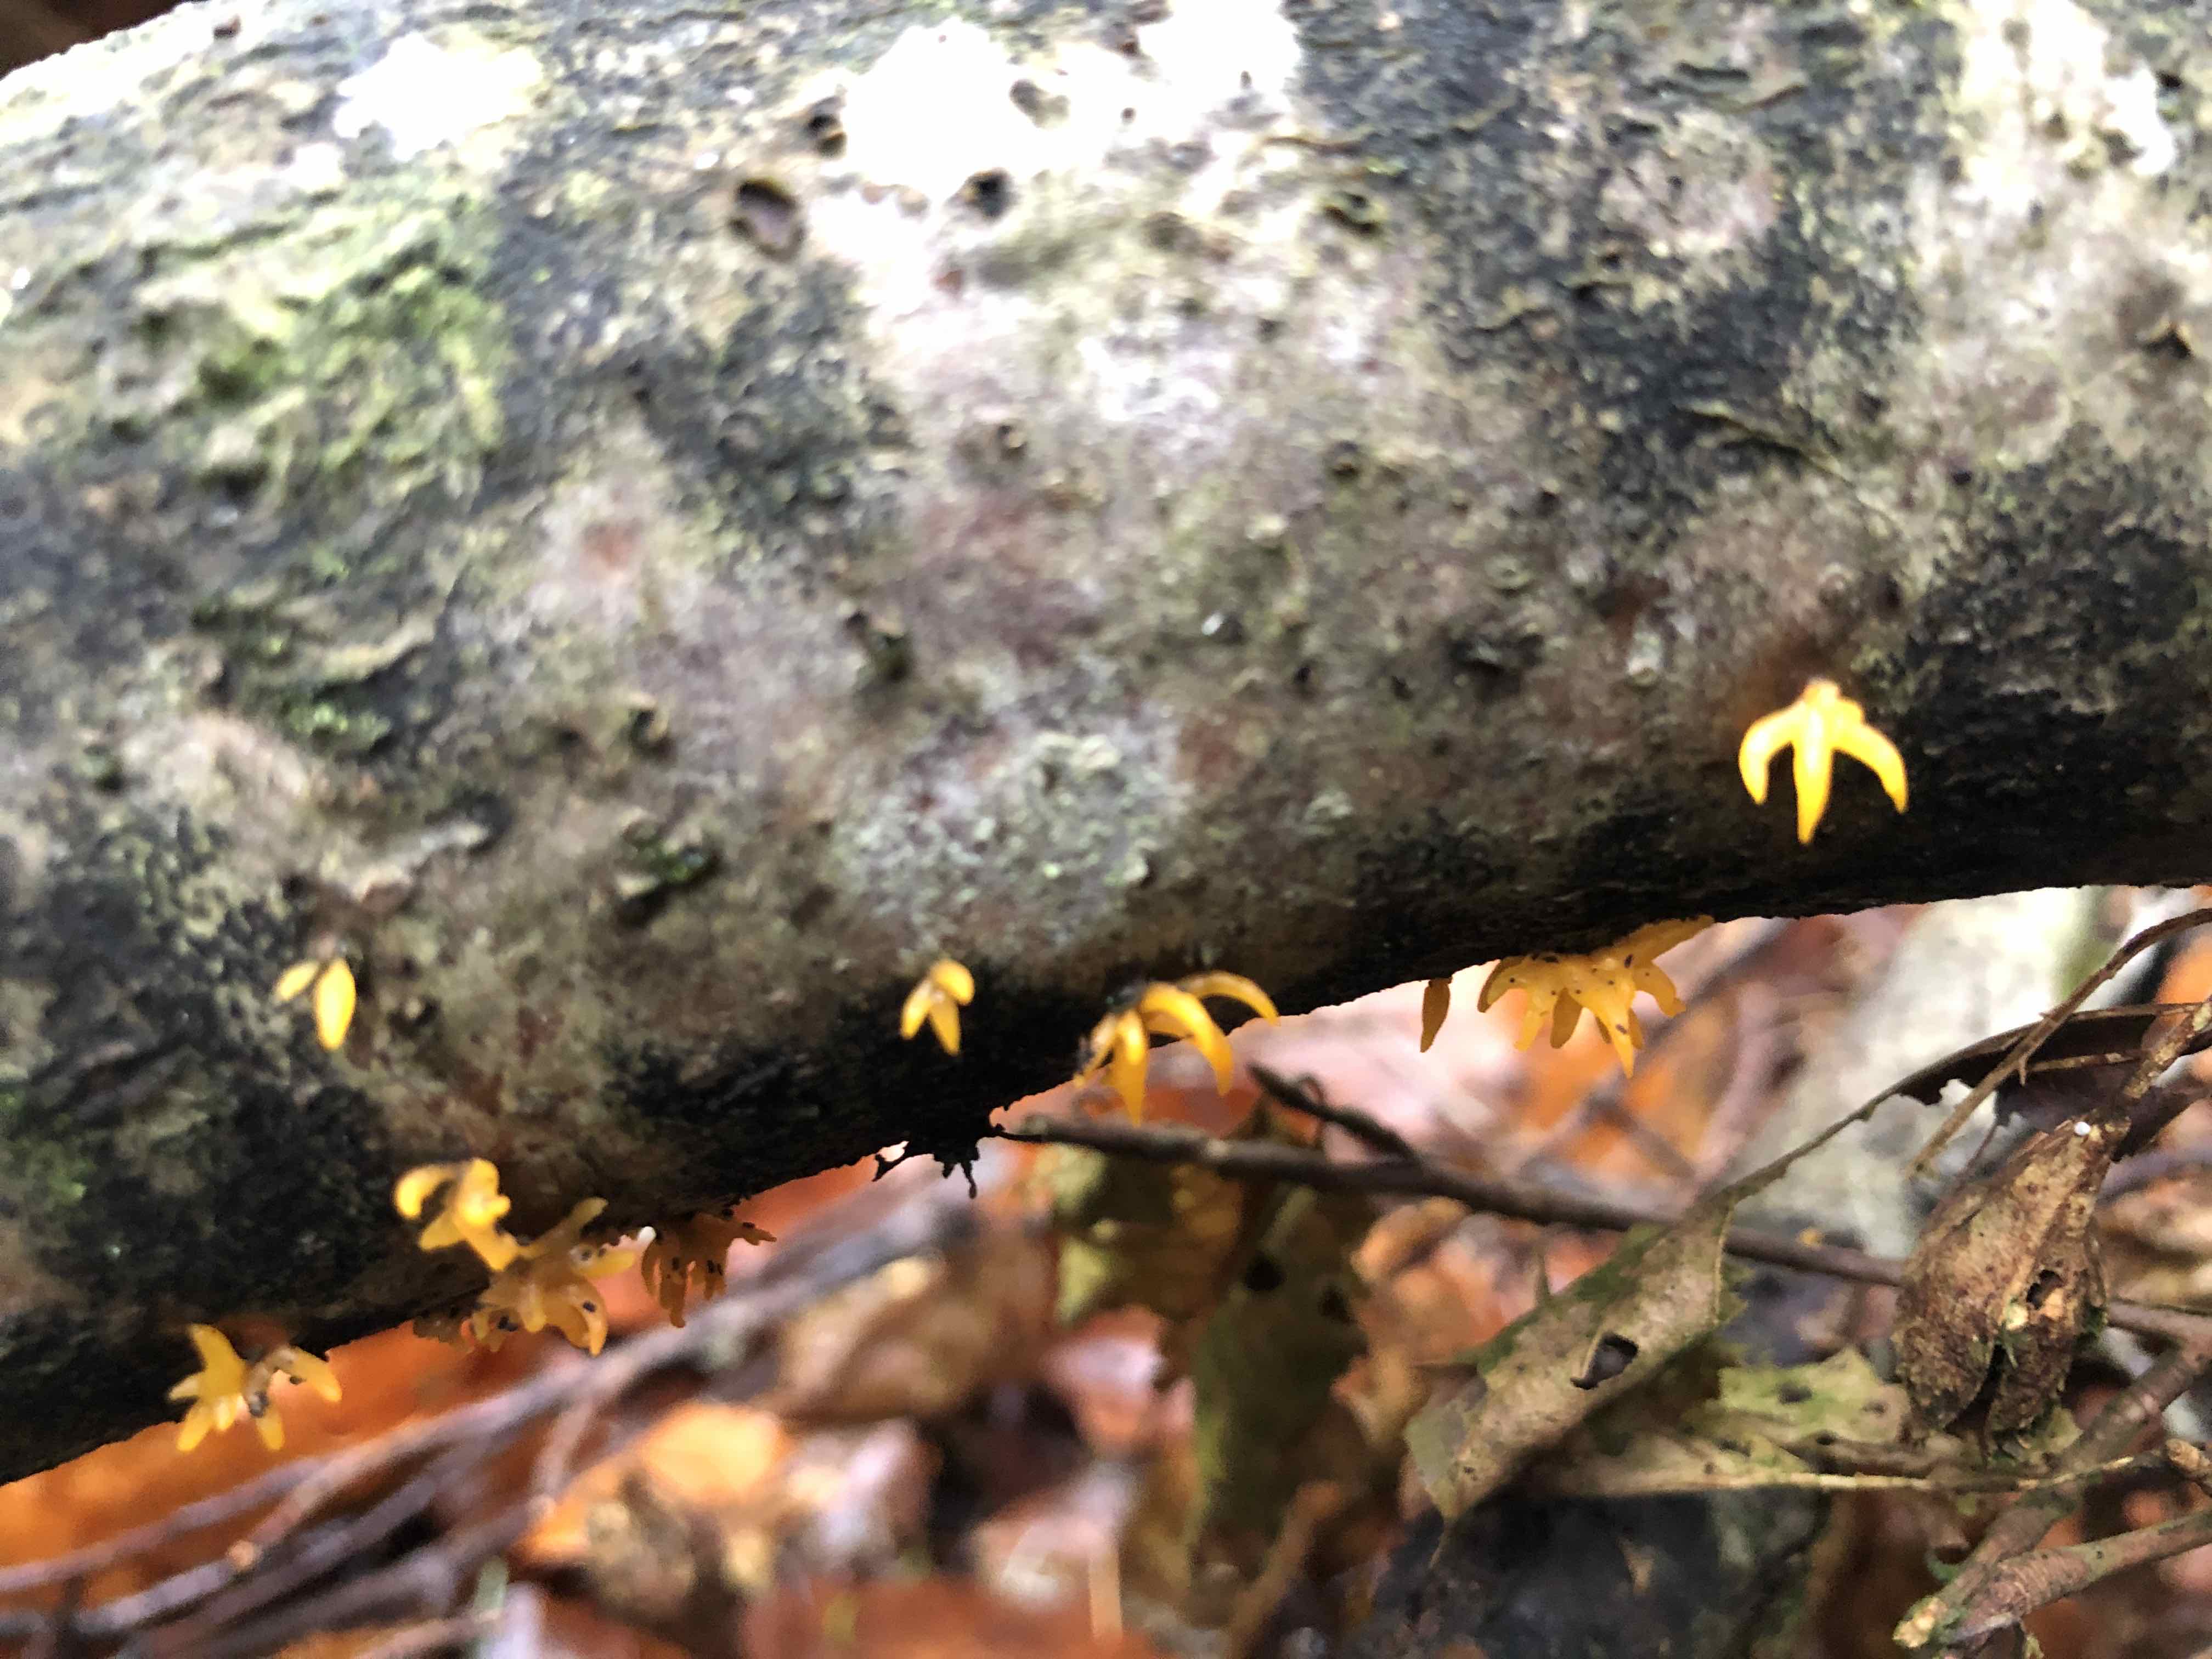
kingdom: Fungi
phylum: Basidiomycota
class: Dacrymycetes
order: Dacrymycetales
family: Dacrymycetaceae
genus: Calocera
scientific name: Calocera cornea
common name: liden guldgaffel
